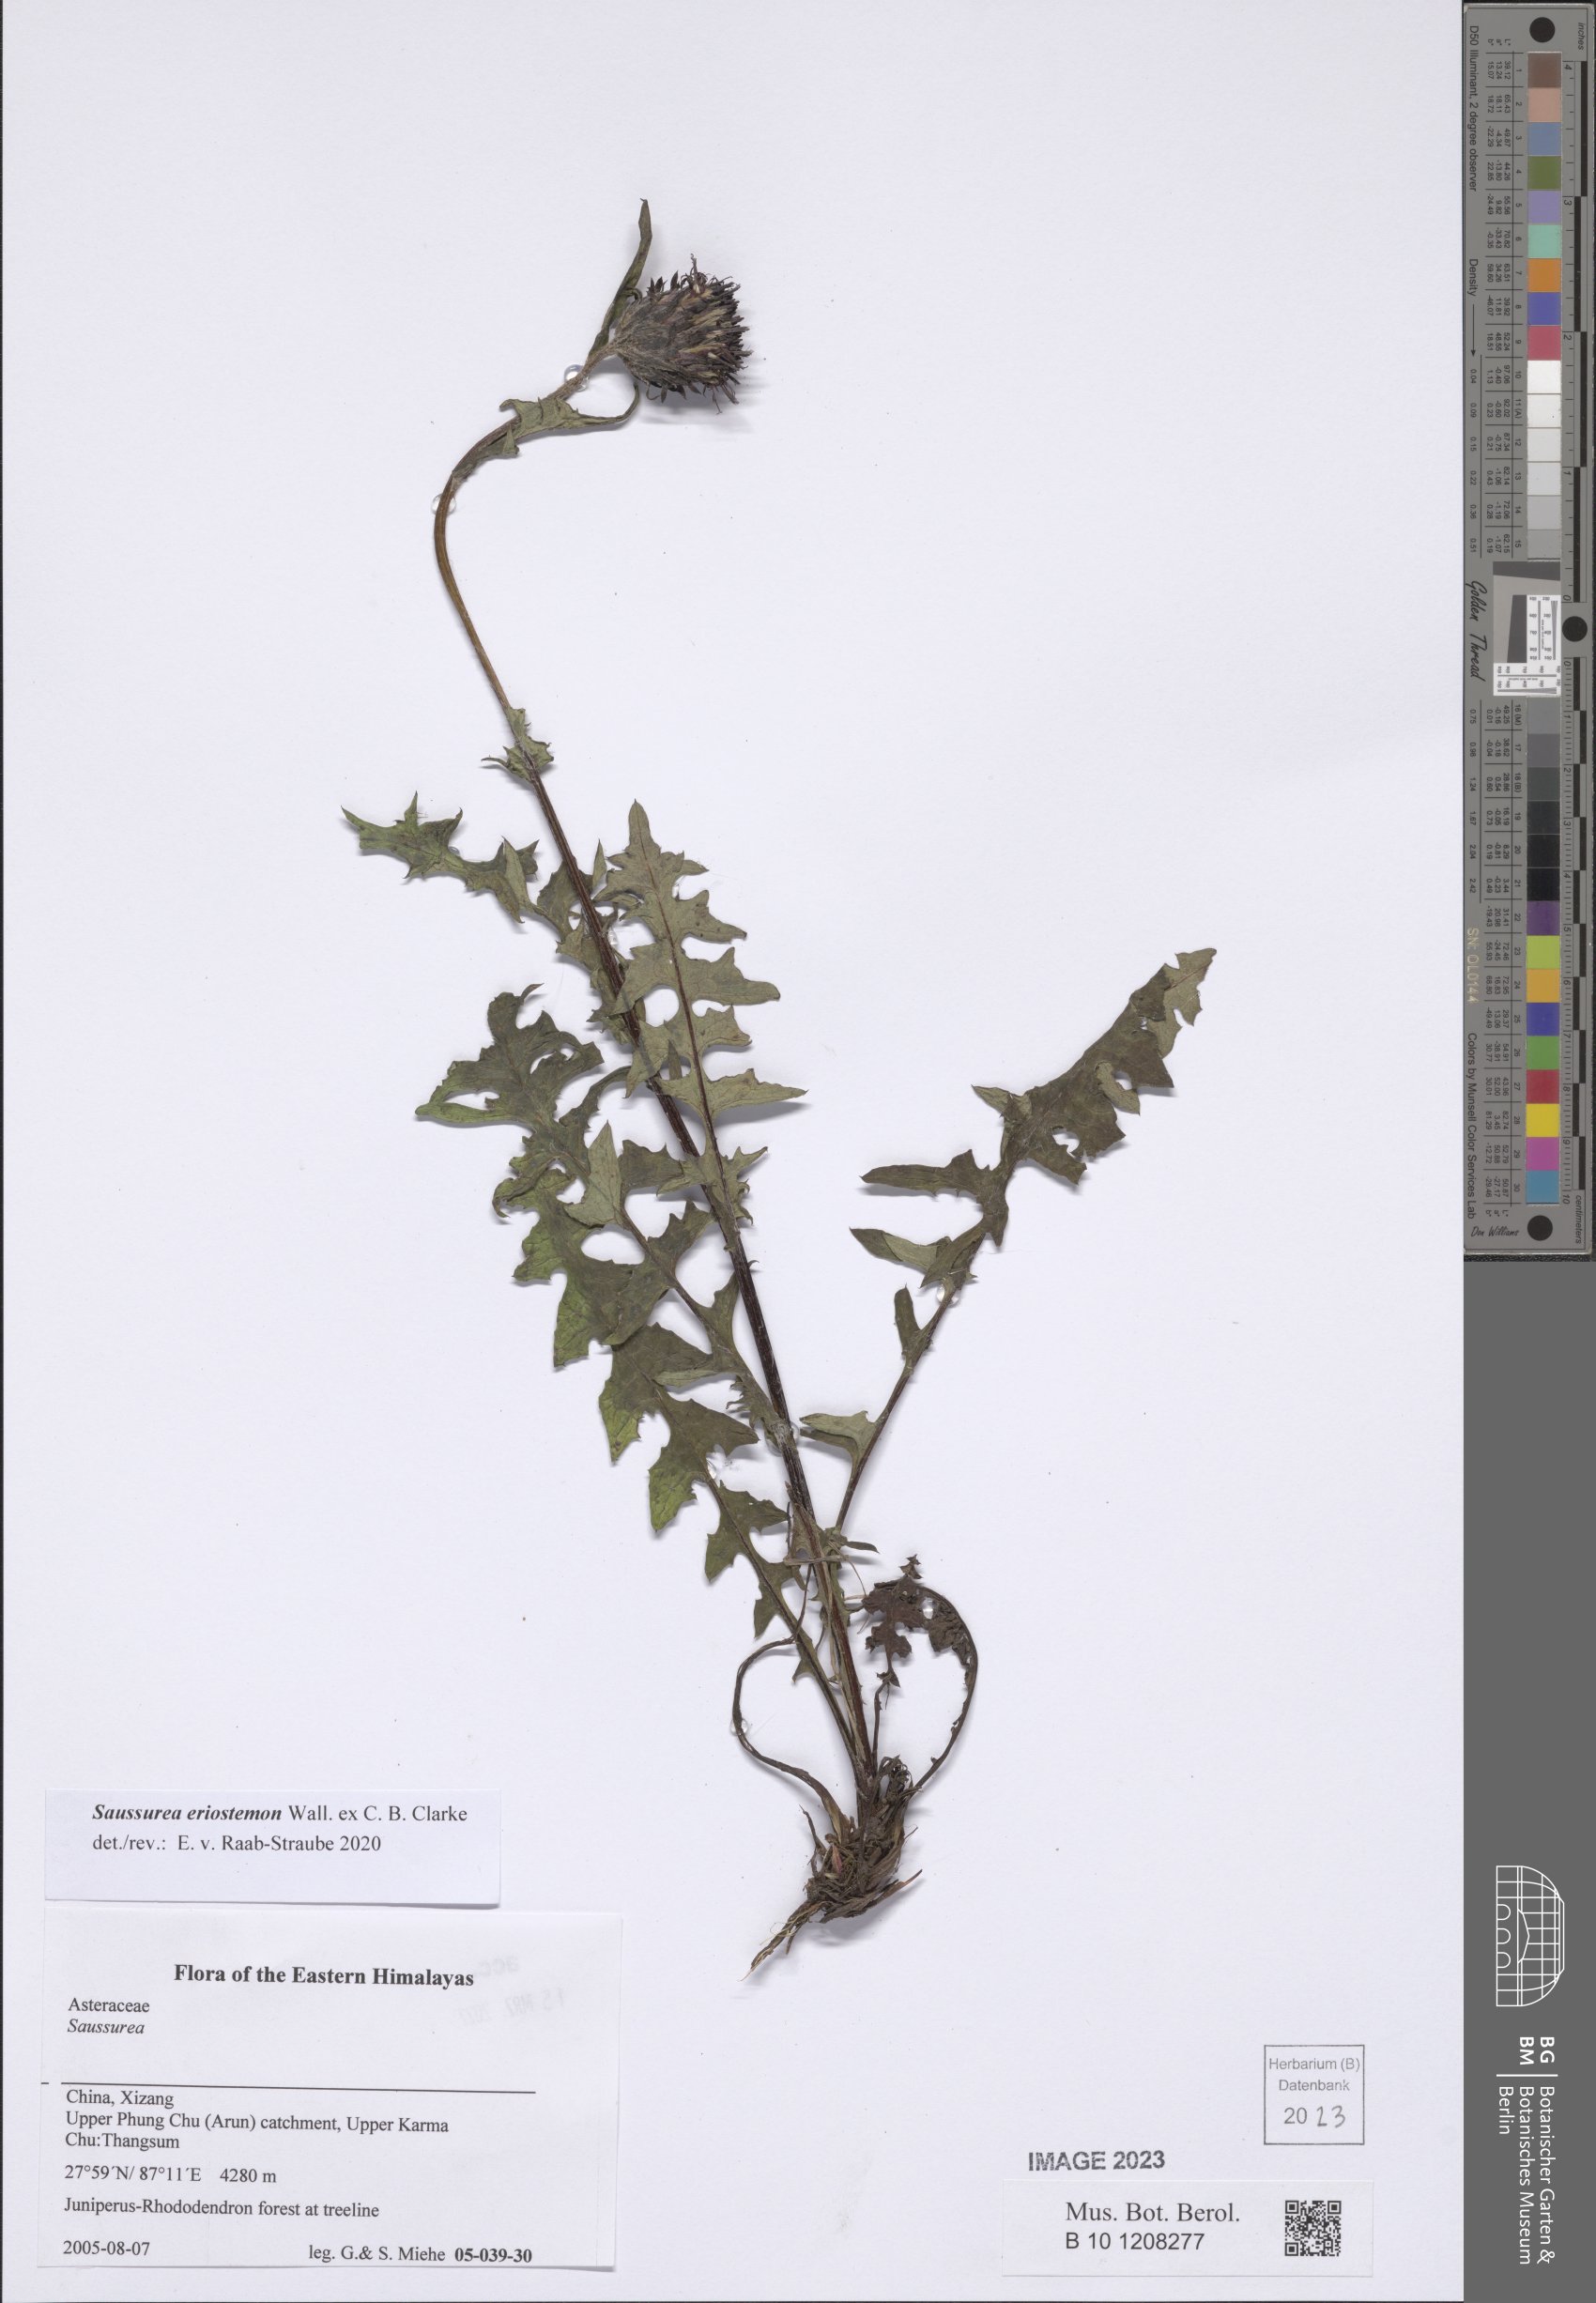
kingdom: Plantae
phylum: Tracheophyta
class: Magnoliopsida
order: Asterales
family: Asteraceae
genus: Saussurea
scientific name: Saussurea eriostemon
